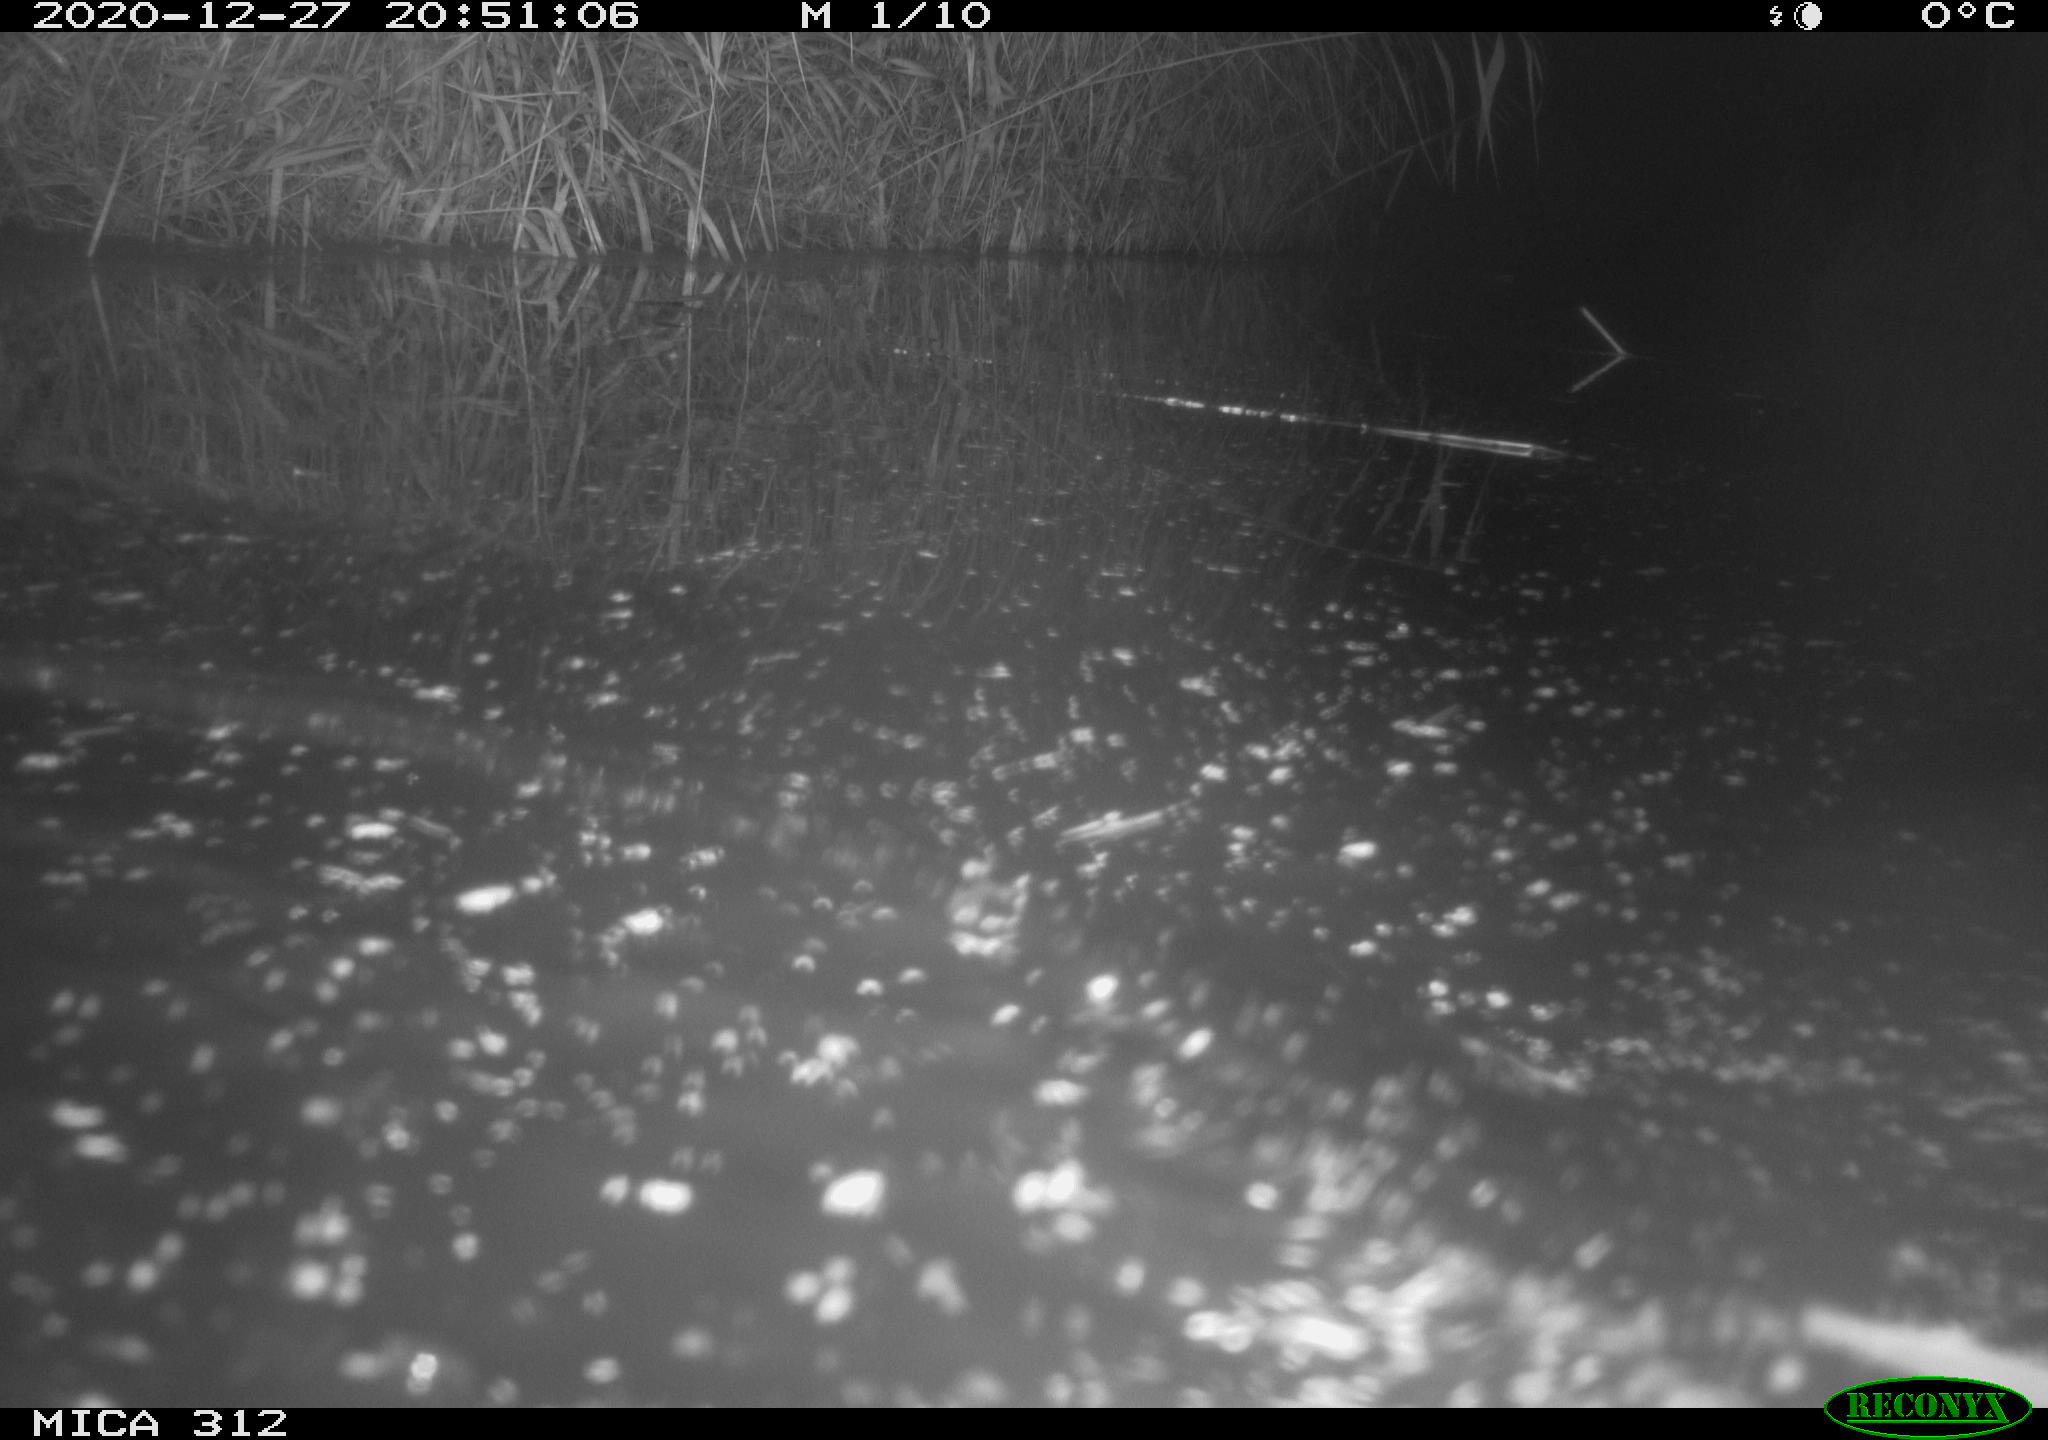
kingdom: Animalia
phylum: Chordata
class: Aves
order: Gruiformes
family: Rallidae
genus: Gallinula
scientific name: Gallinula chloropus
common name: Common moorhen
